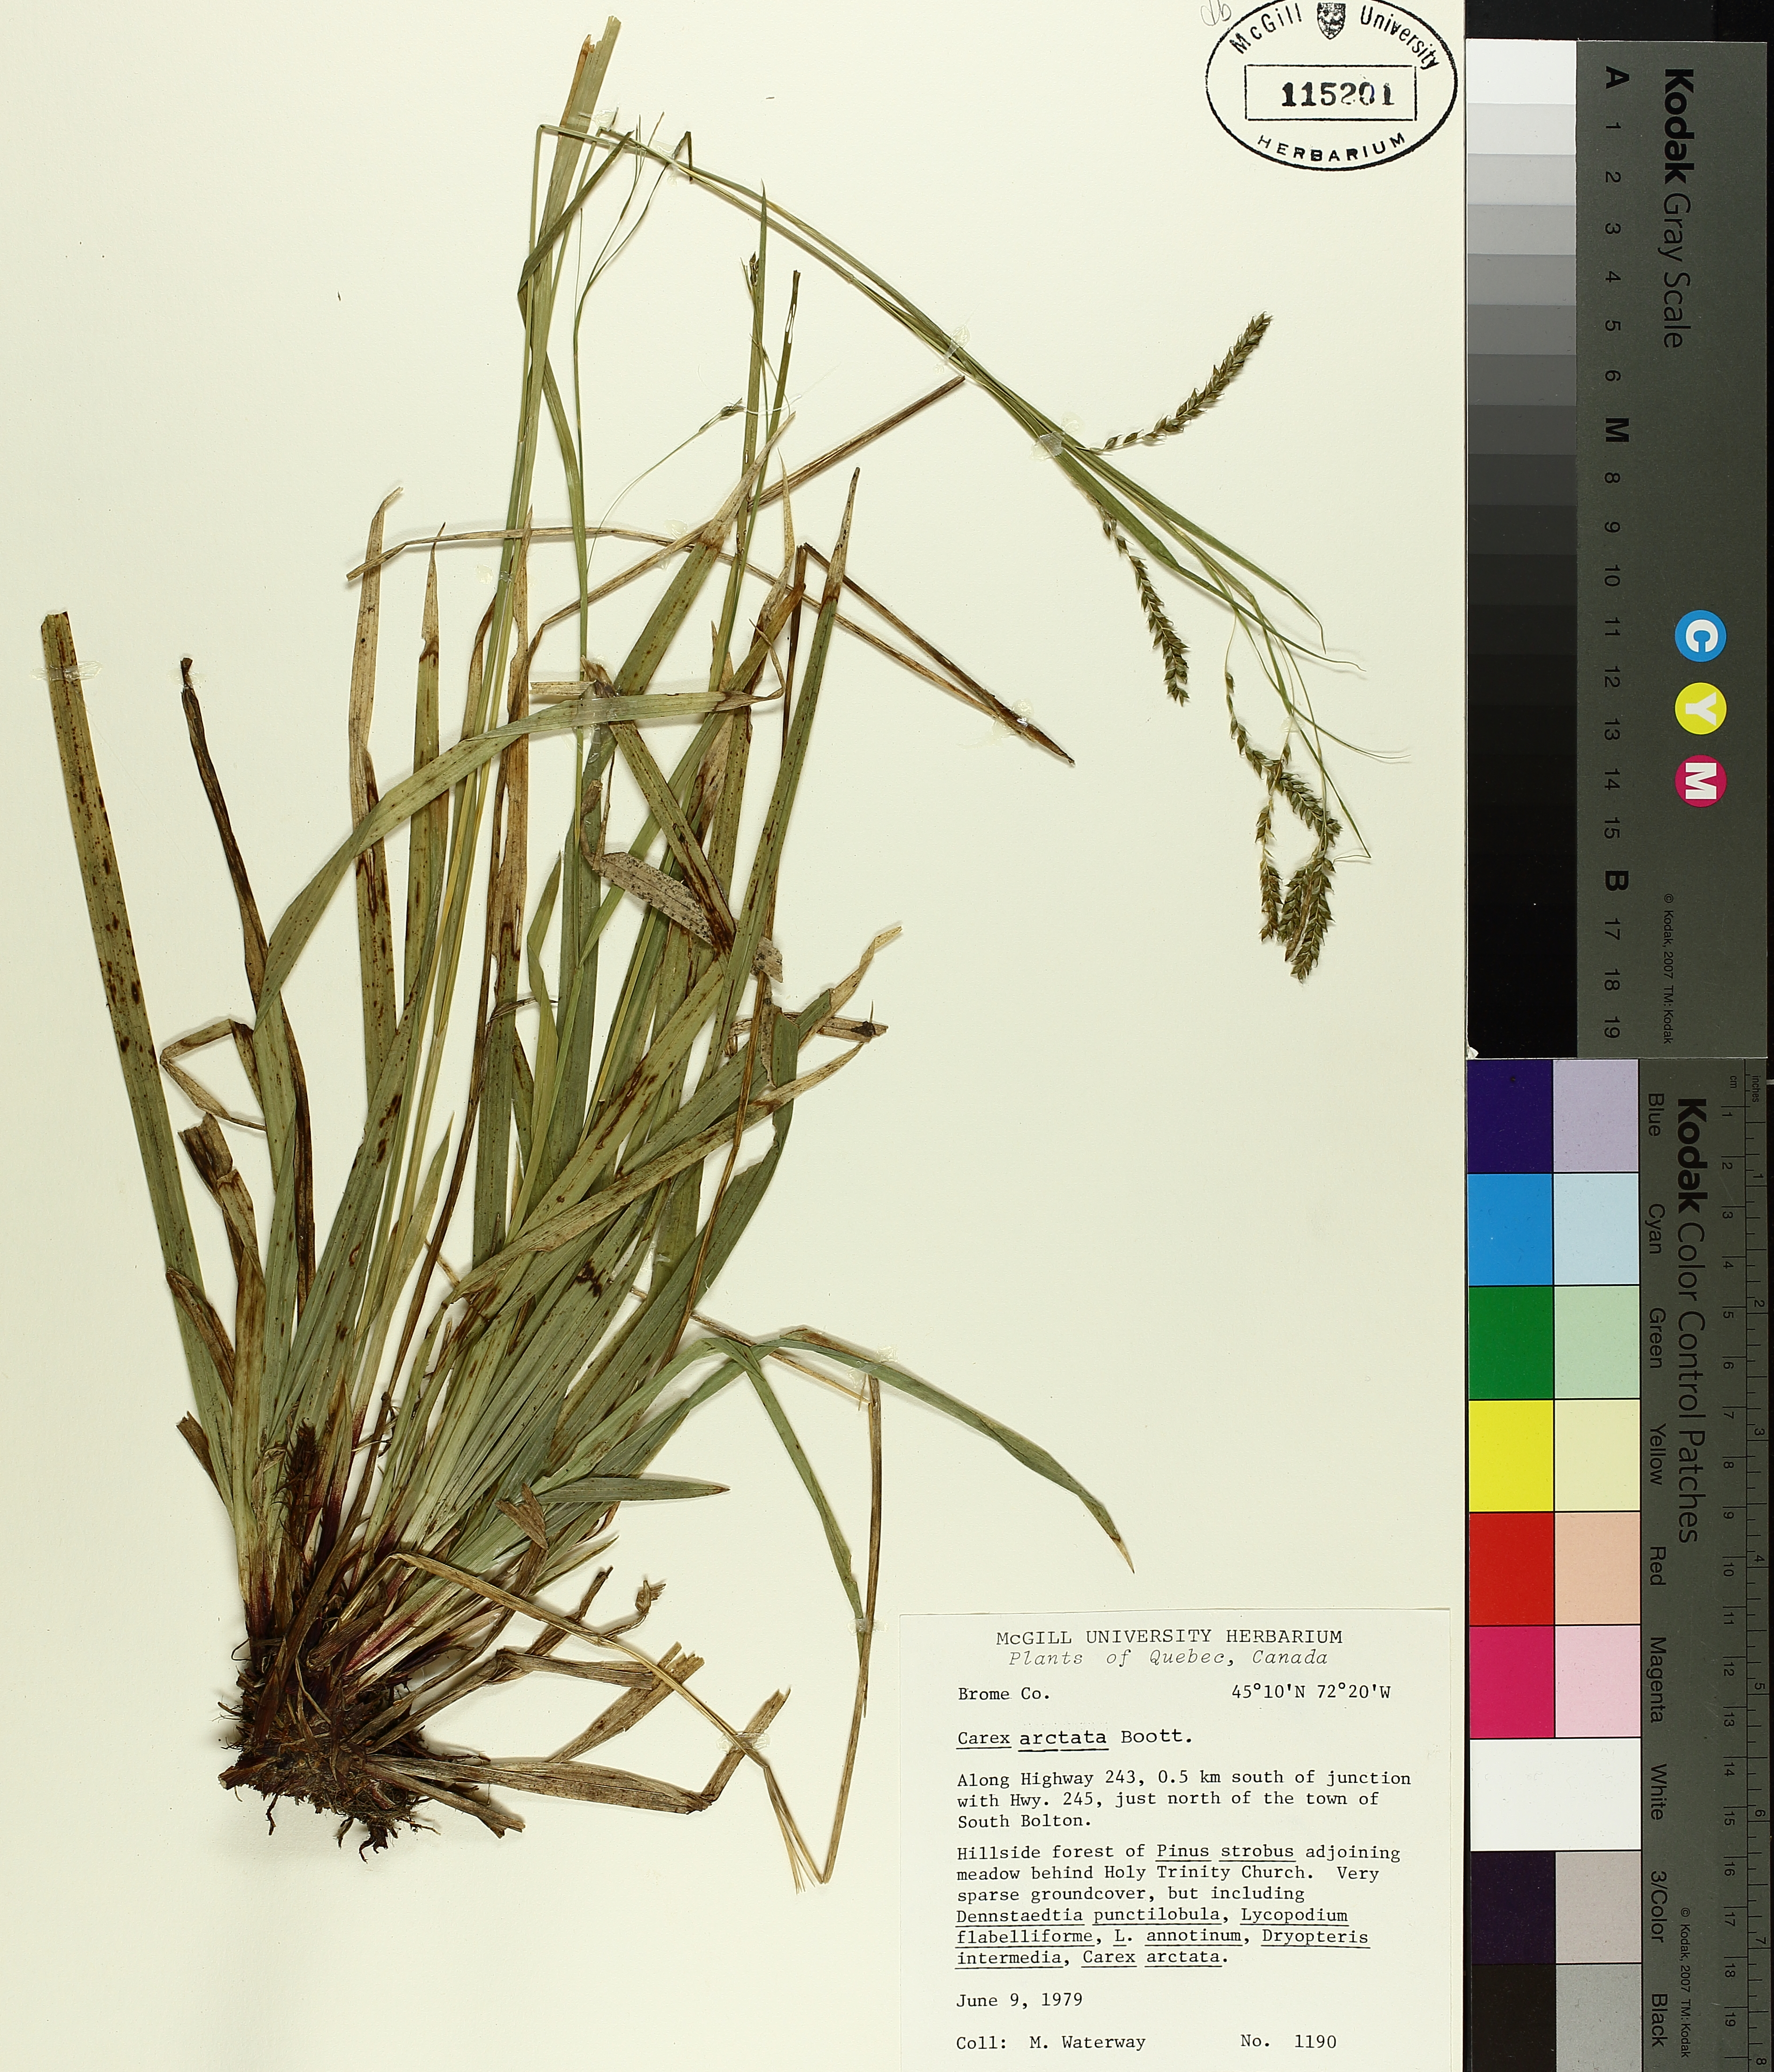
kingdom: Plantae
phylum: Tracheophyta
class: Liliopsida
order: Poales
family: Cyperaceae
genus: Carex
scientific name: Carex arctata
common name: Black sedge
